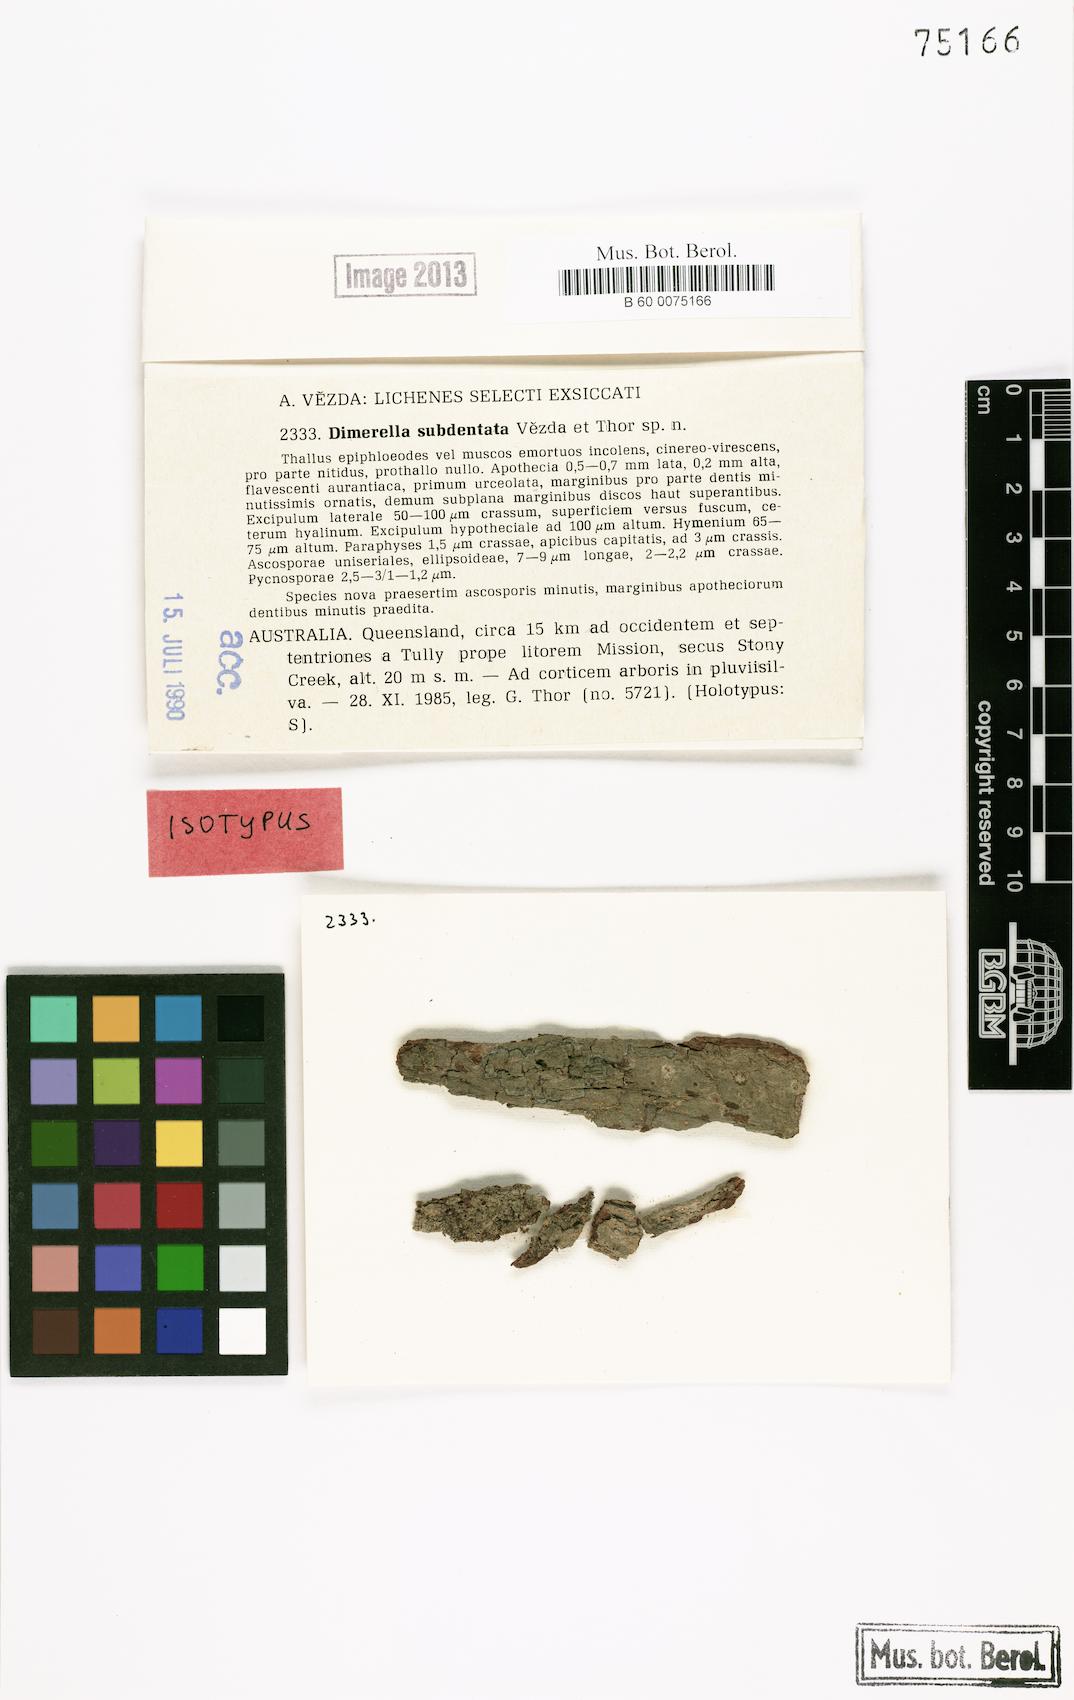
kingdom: Fungi
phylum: Ascomycota
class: Lecanoromycetes
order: Ostropales
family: Coenogoniaceae
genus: Coenogonium
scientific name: Coenogonium subdentatum
